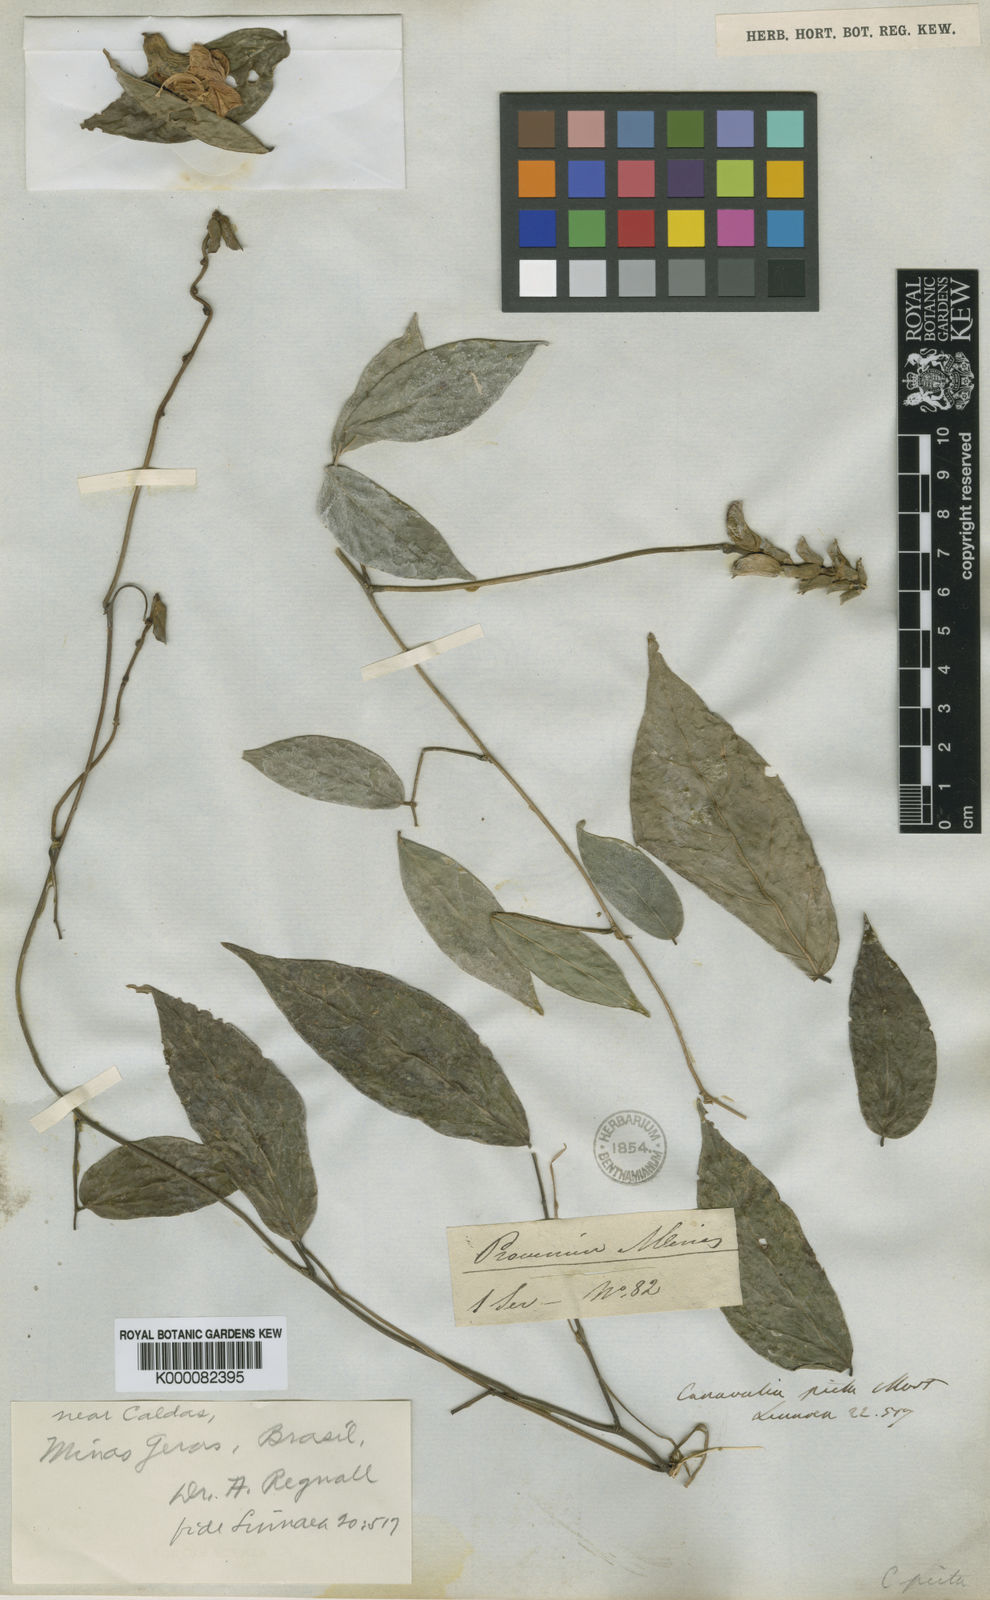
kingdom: Plantae
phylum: Tracheophyta
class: Magnoliopsida
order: Fabales
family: Fabaceae
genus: Canavalia
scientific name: Canavalia
